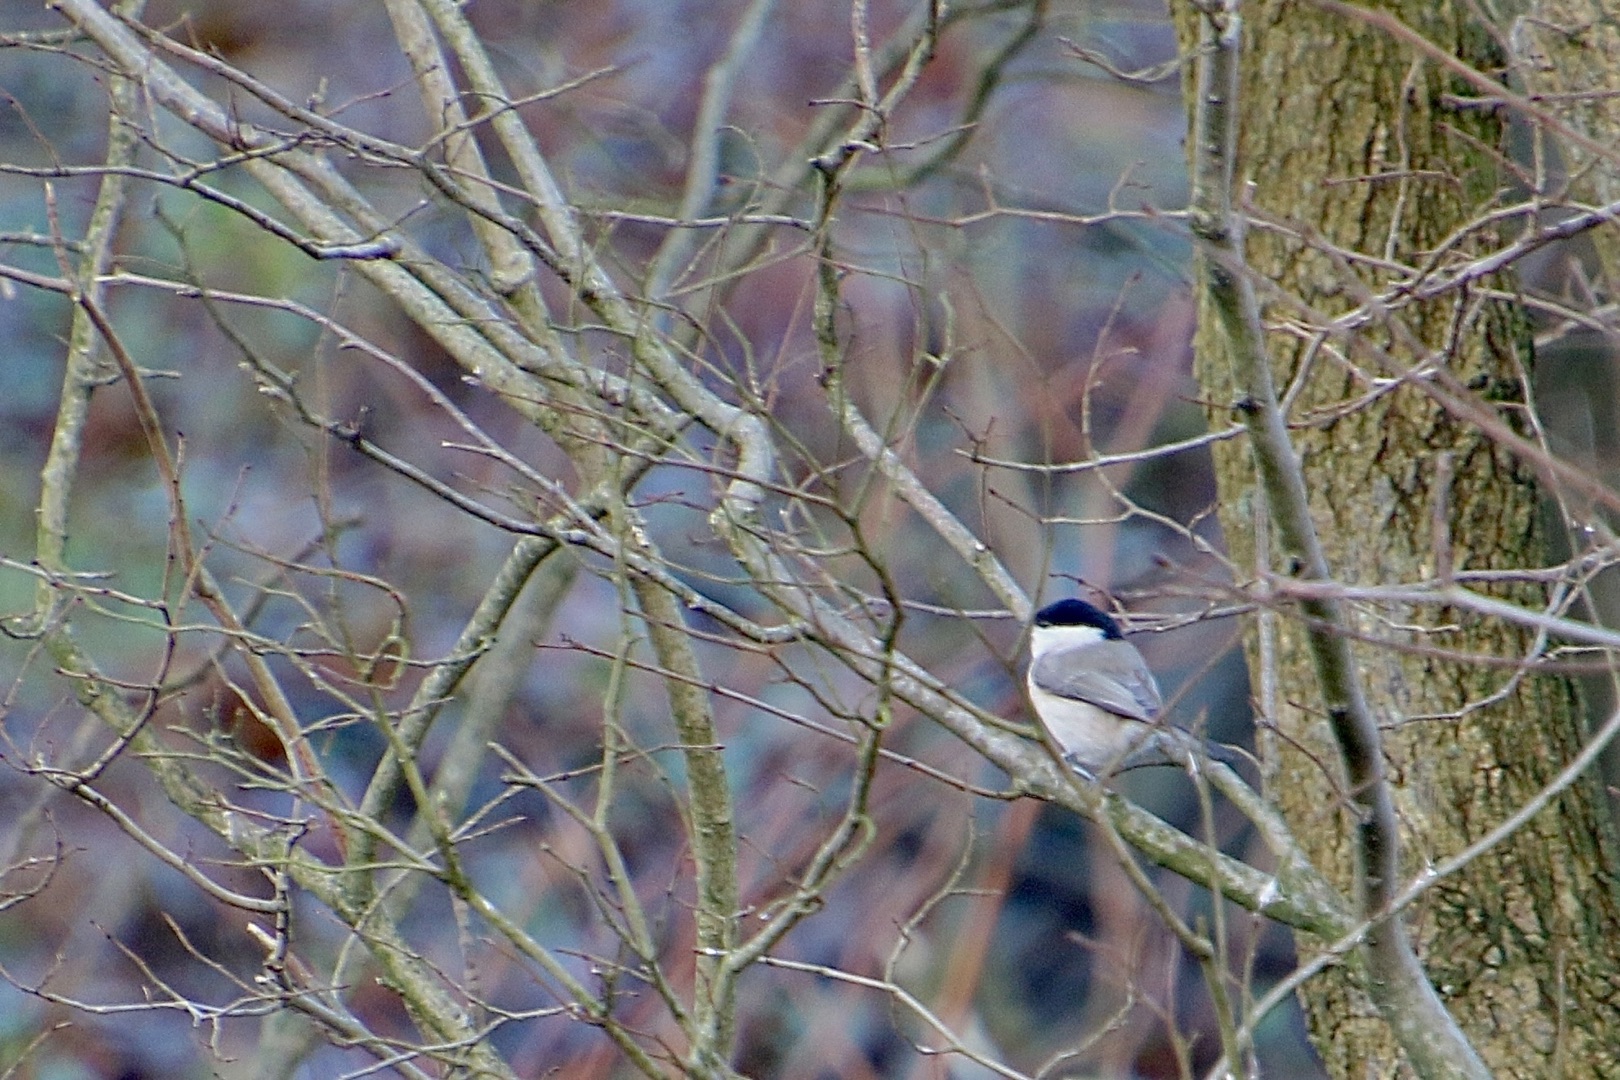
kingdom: Animalia
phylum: Chordata
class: Aves
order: Passeriformes
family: Paridae
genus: Poecile
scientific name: Poecile palustris
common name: Sumpmejse
